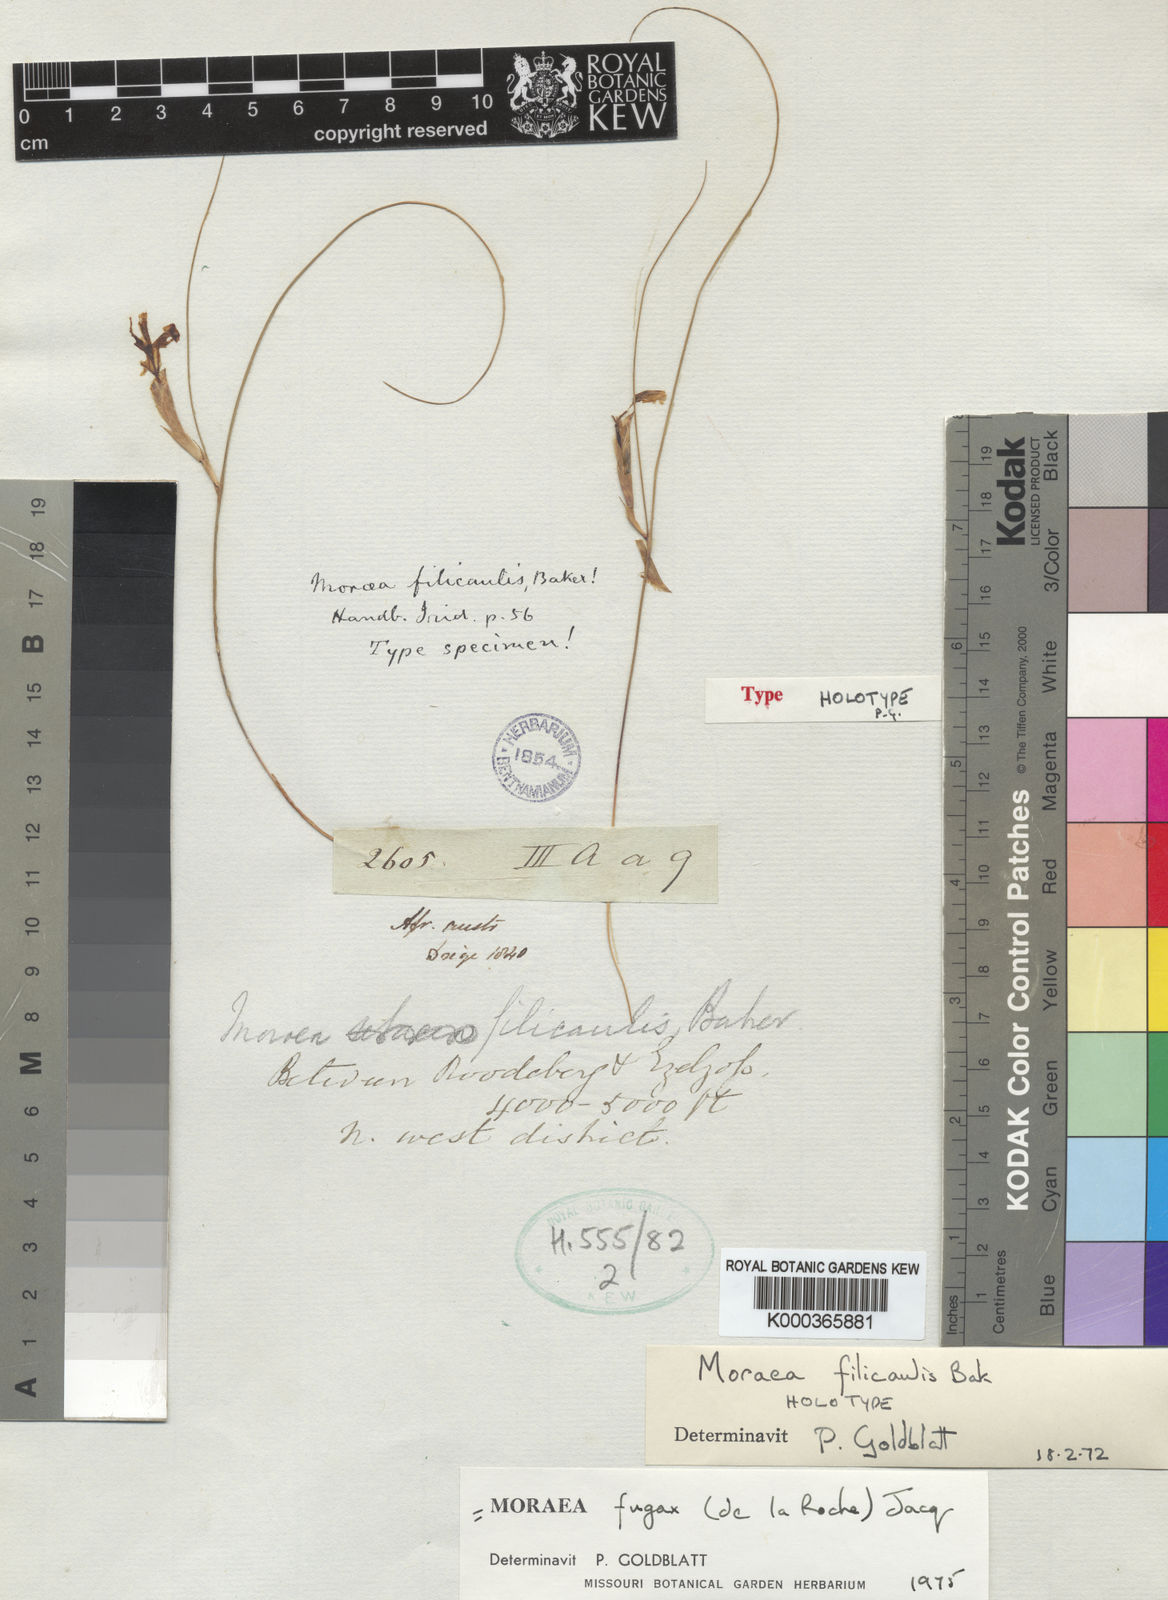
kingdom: Plantae
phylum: Tracheophyta
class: Liliopsida
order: Asparagales
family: Iridaceae
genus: Moraea
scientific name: Moraea fugax
